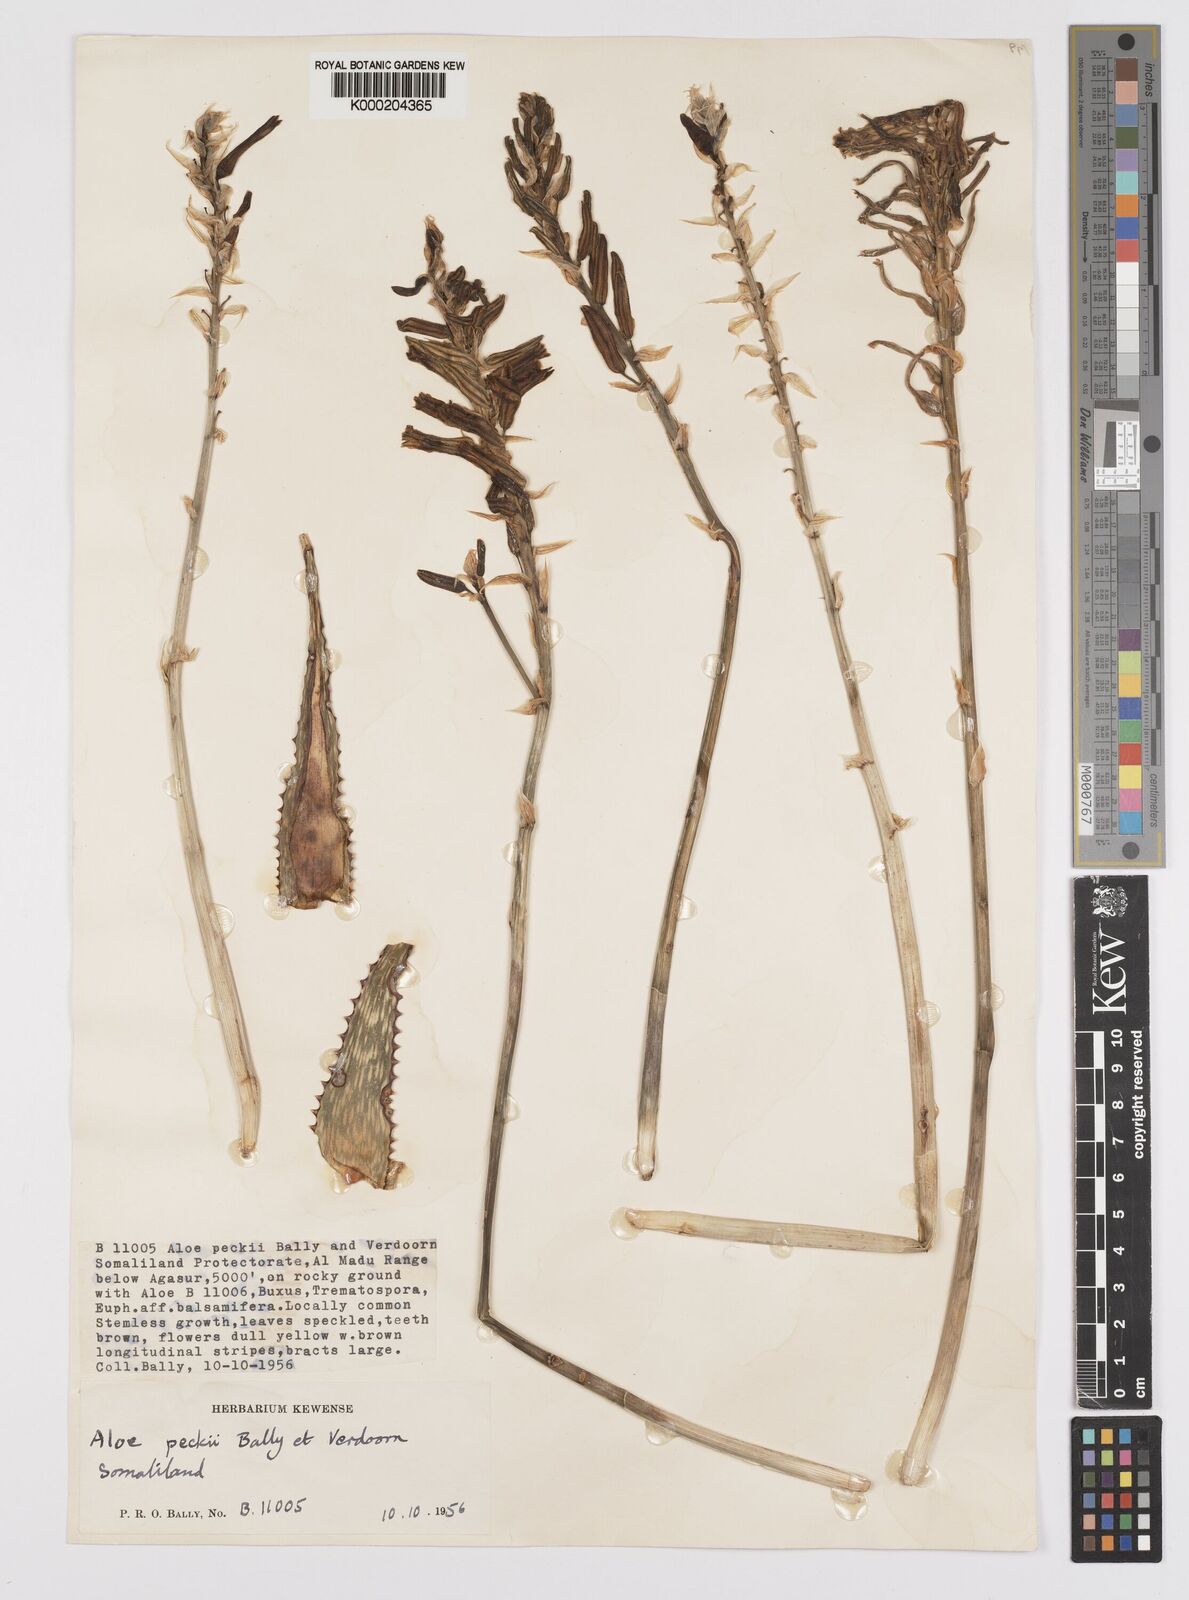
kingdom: Plantae
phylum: Tracheophyta
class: Liliopsida
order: Asparagales
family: Asphodelaceae
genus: Aloe
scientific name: Aloe peckii
